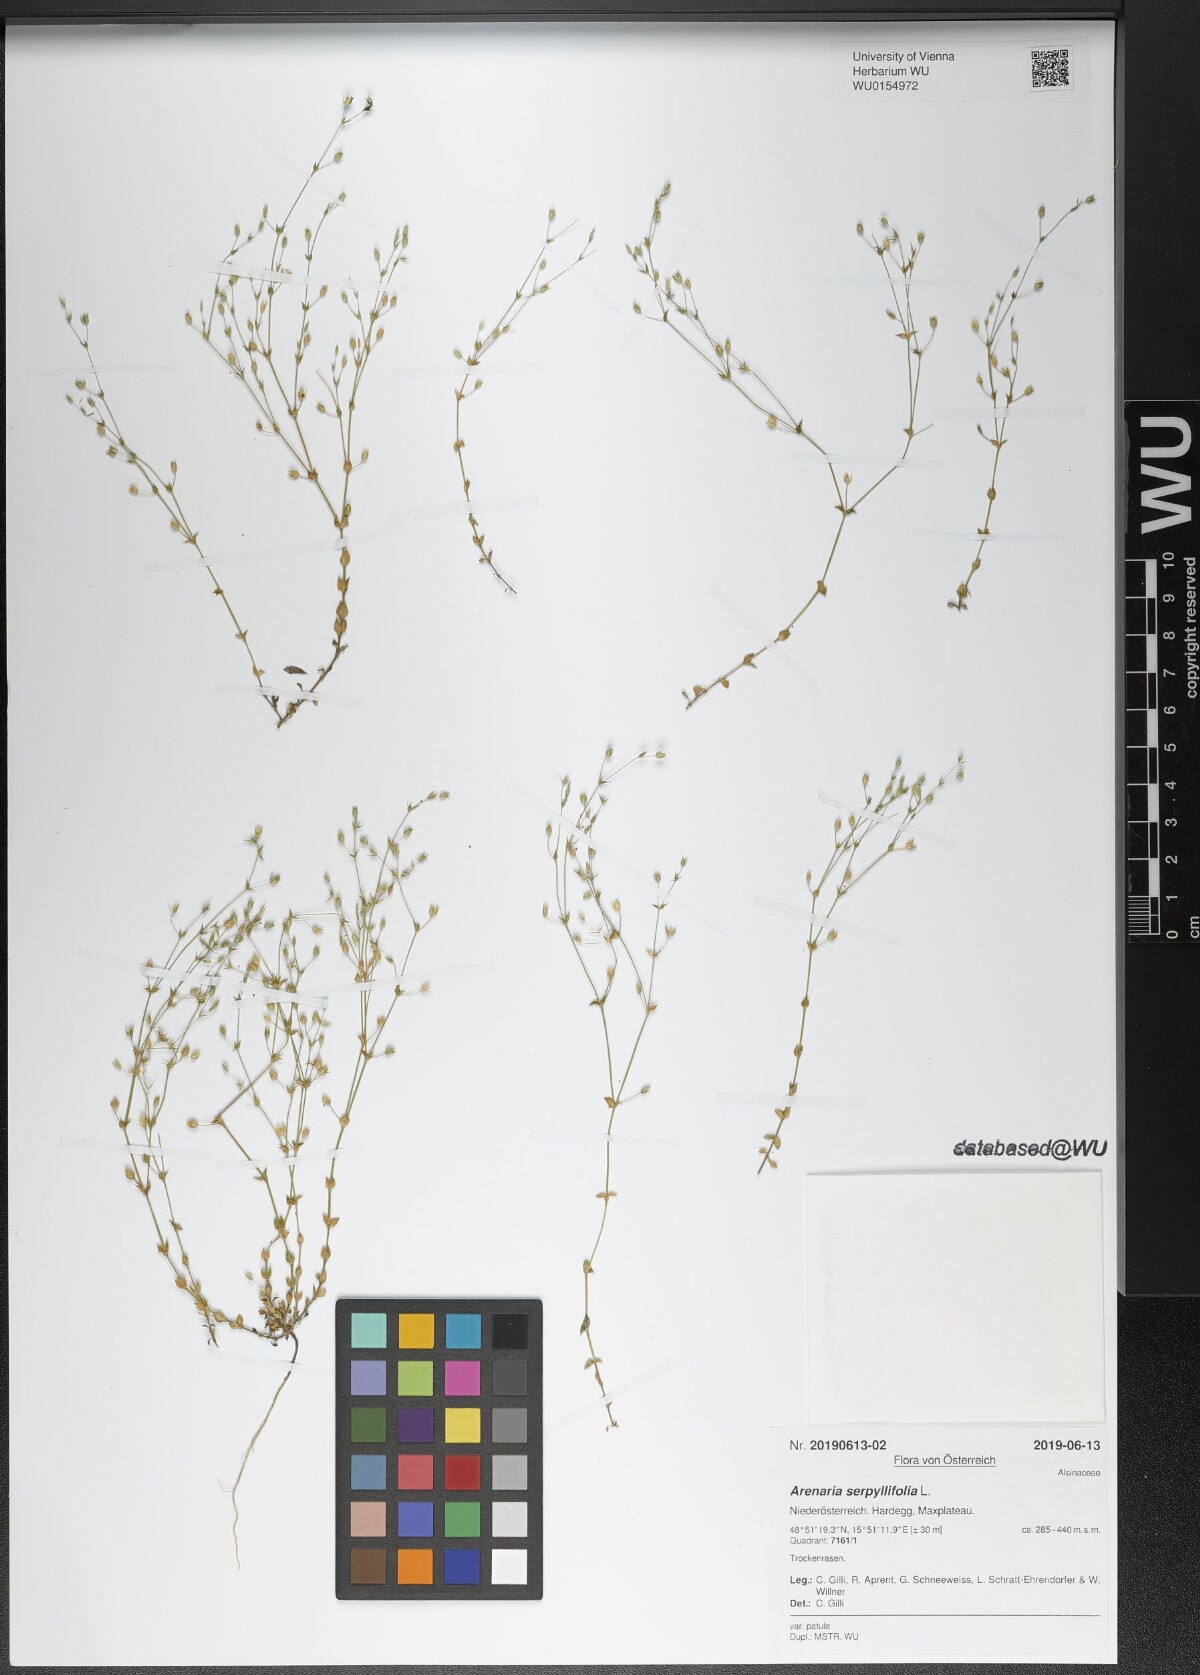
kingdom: Plantae
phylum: Tracheophyta
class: Magnoliopsida
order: Caryophyllales
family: Caryophyllaceae
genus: Arenaria
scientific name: Arenaria serpyllifolia
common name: Thyme-leaved sandwort
